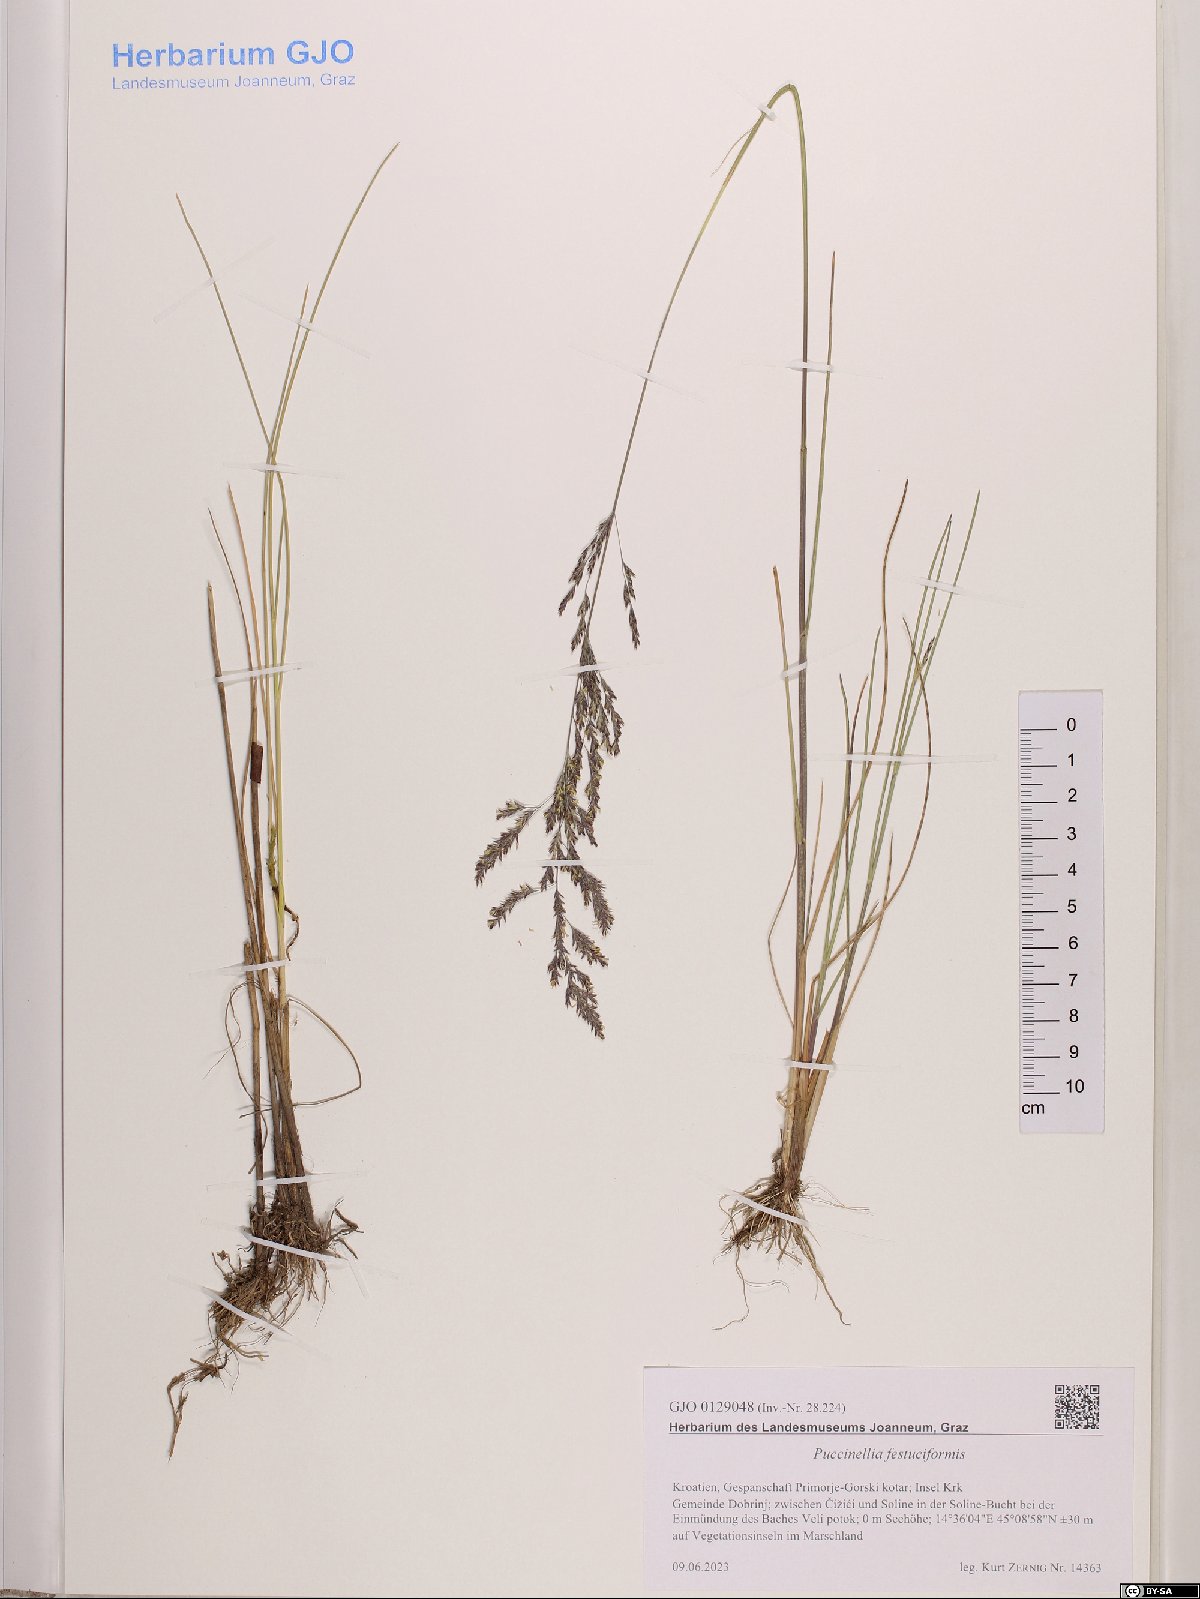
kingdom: Plantae
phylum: Tracheophyta
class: Liliopsida
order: Poales
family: Poaceae
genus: Puccinellia
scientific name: Puccinellia festuciformis
